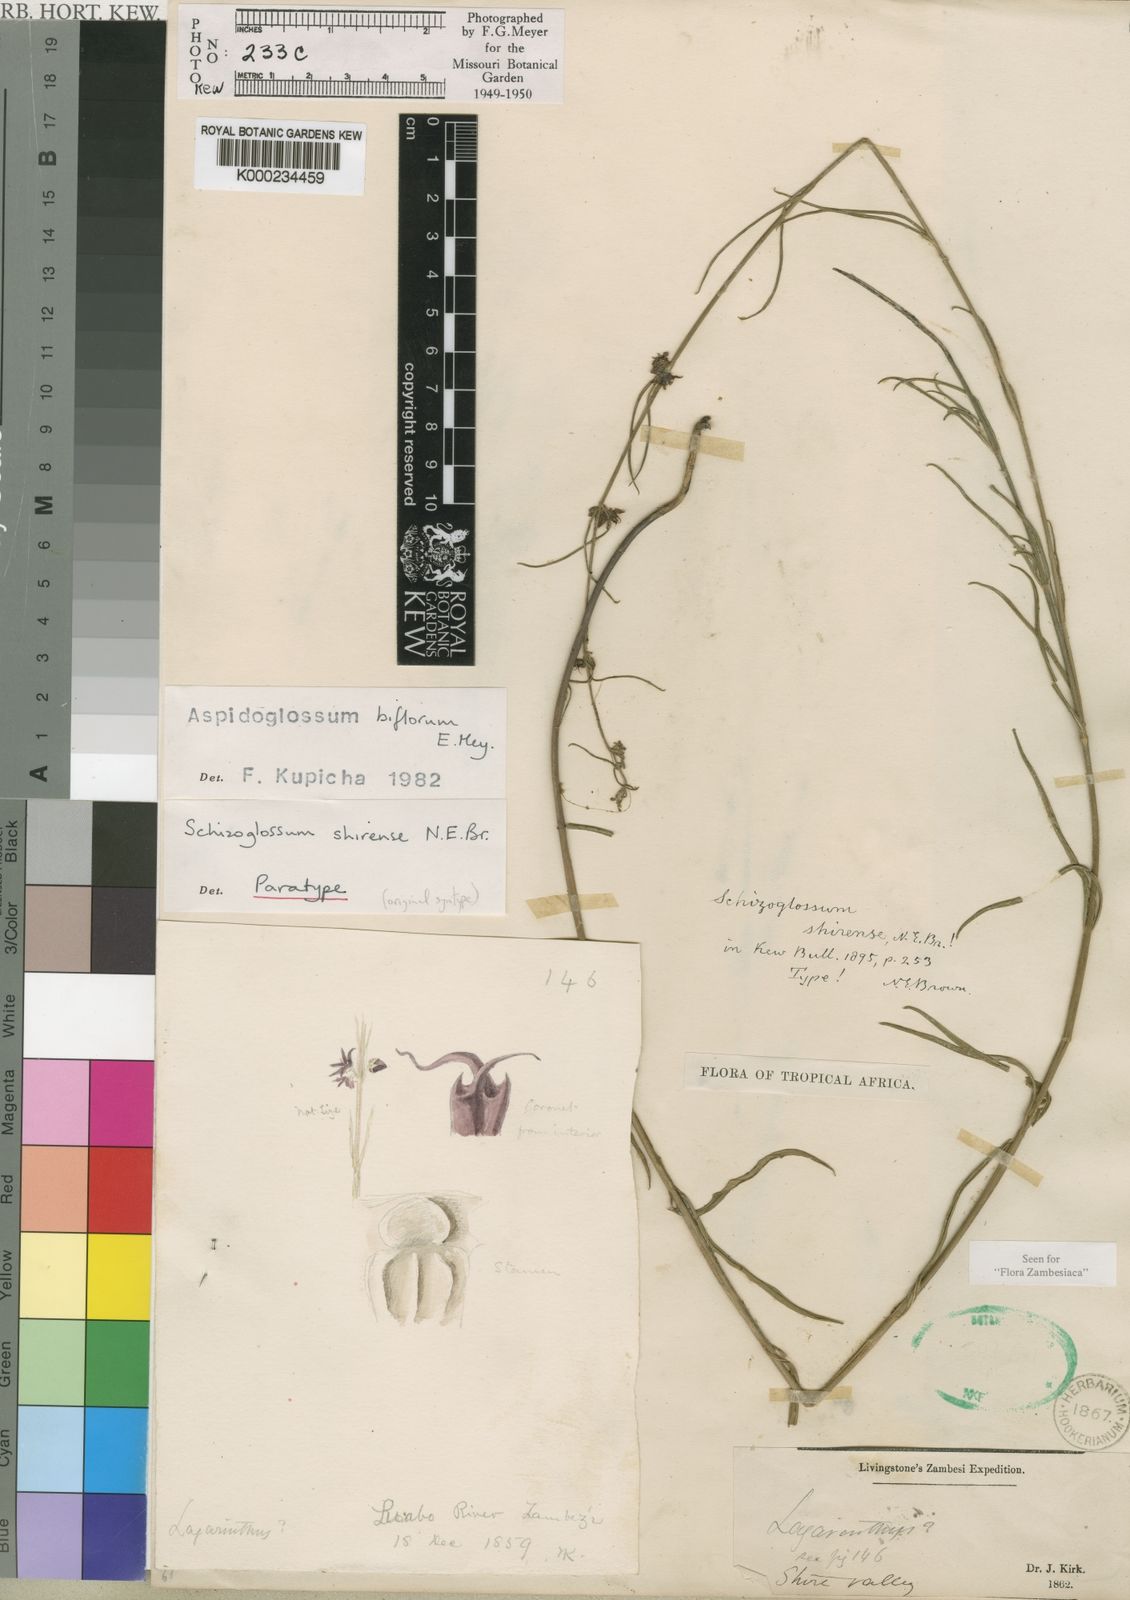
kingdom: Plantae
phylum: Tracheophyta
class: Magnoliopsida
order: Gentianales
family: Apocynaceae
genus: Aspidoglossum
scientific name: Aspidoglossum biflorum
